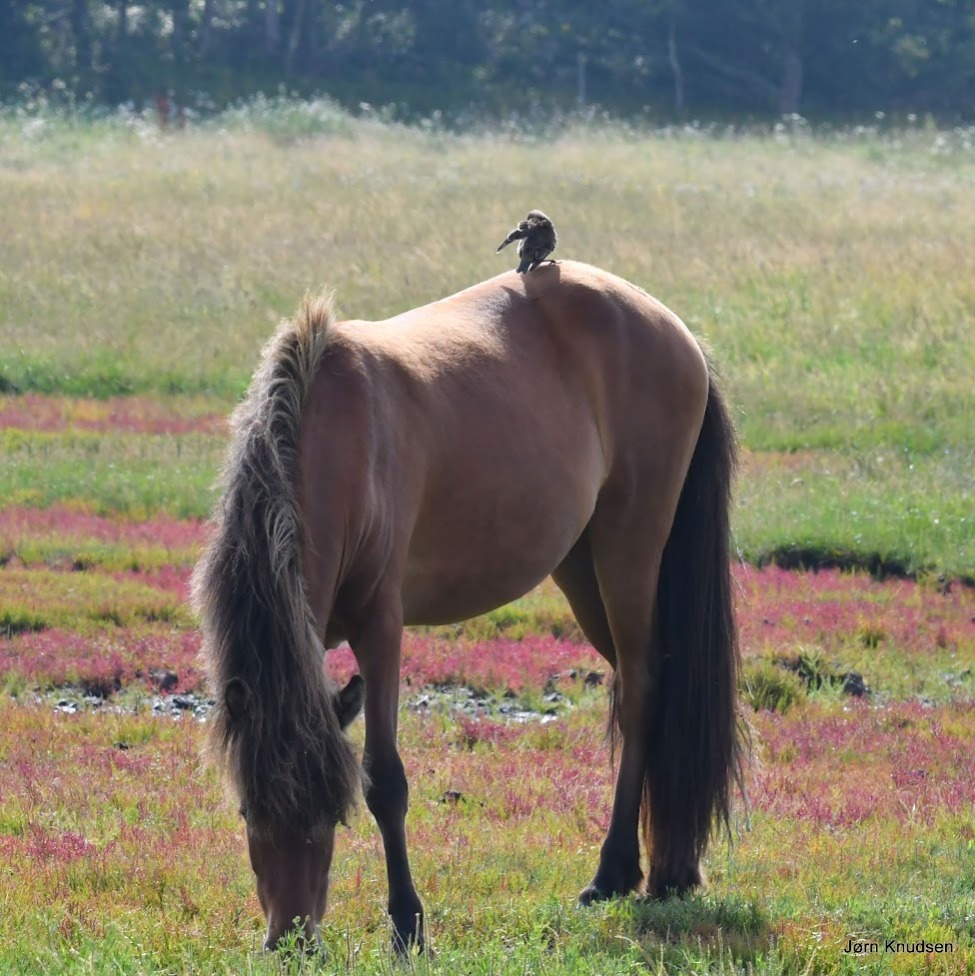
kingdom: Animalia
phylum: Chordata
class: Aves
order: Passeriformes
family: Sturnidae
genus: Sturnus
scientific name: Sturnus vulgaris
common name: Stær
